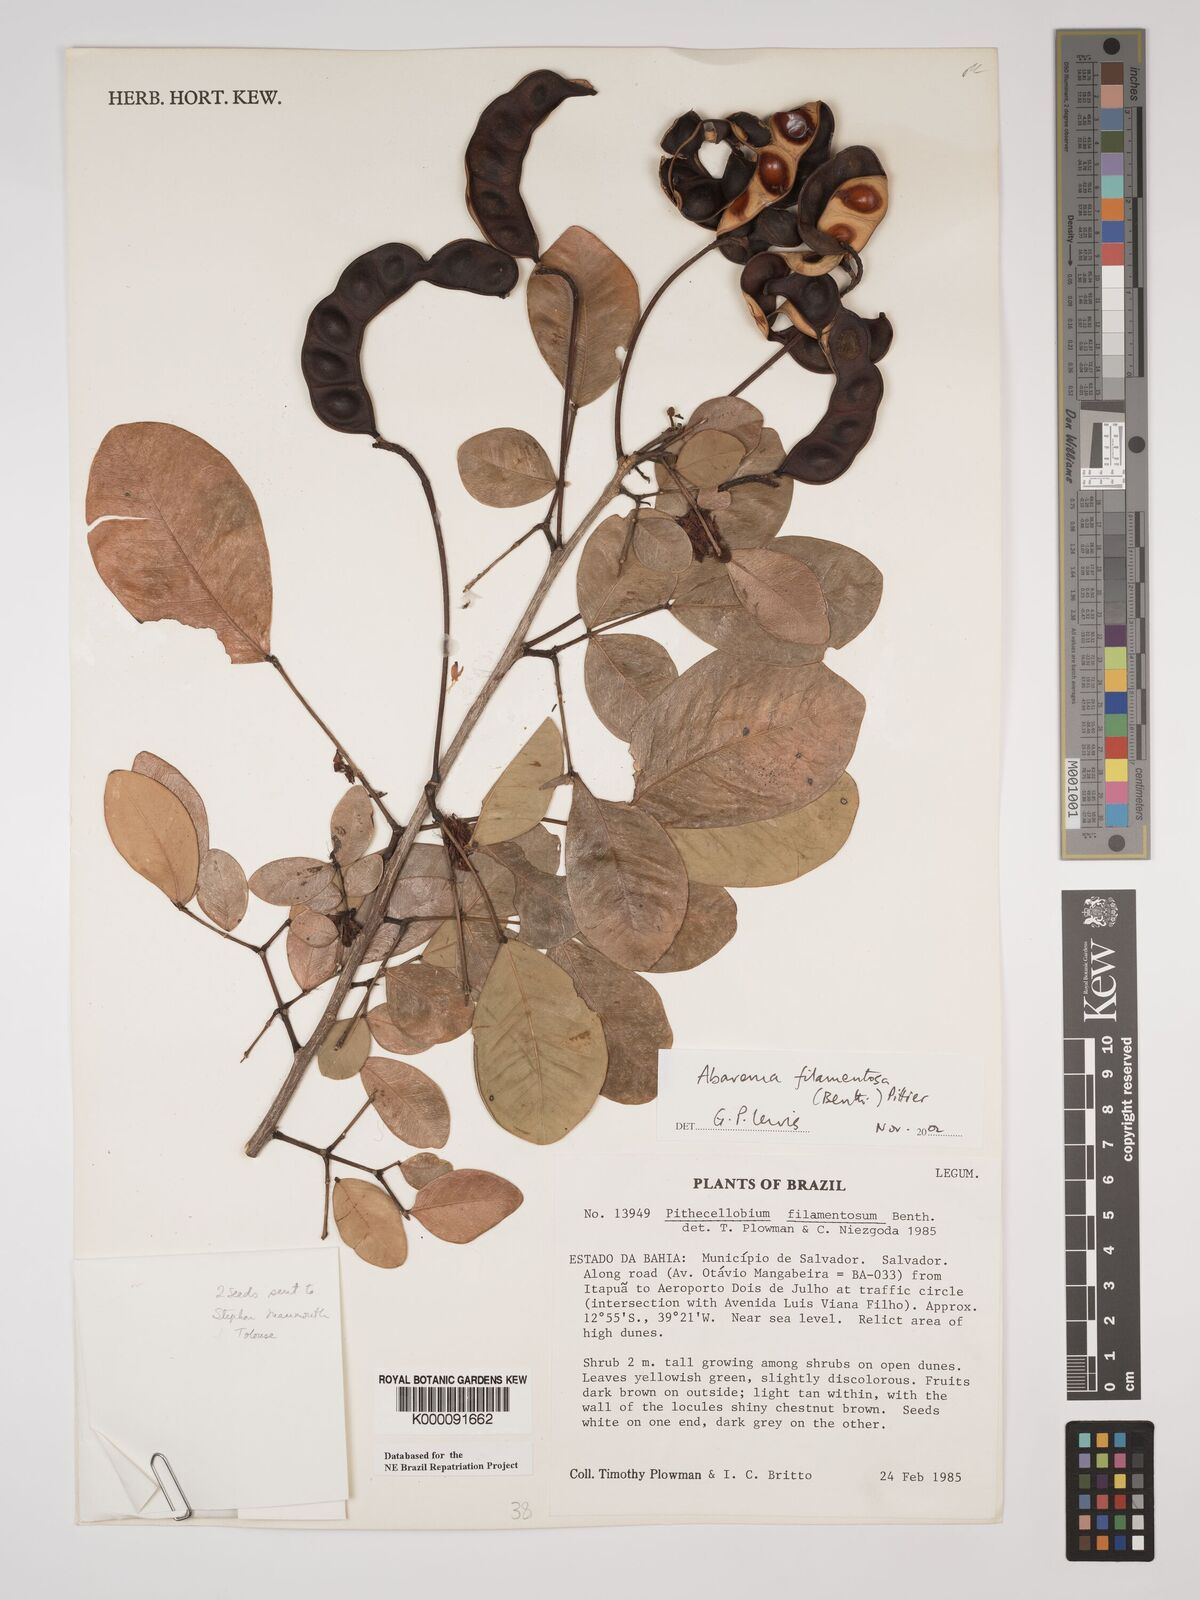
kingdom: Plantae
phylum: Tracheophyta
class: Magnoliopsida
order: Fabales
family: Fabaceae
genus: Jupunba
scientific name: Jupunba filamentosa
